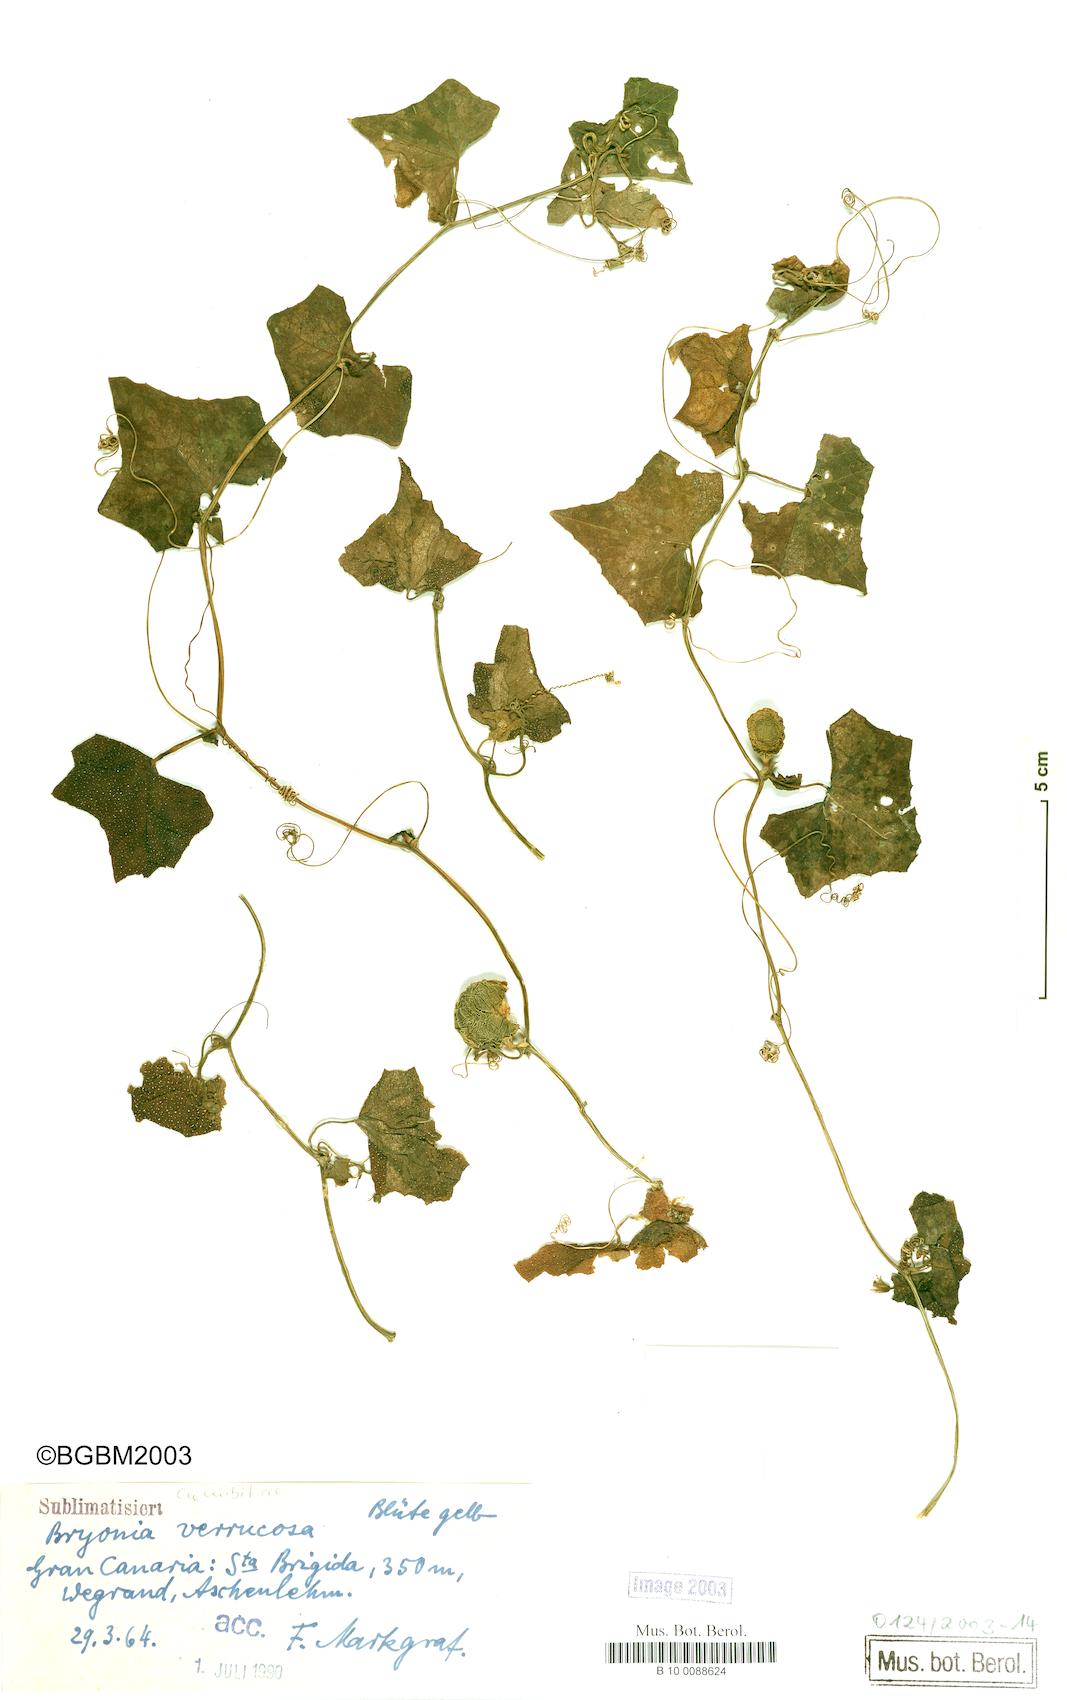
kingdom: Plantae
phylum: Tracheophyta
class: Magnoliopsida
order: Cucurbitales
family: Cucurbitaceae
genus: Bryonia
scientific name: Bryonia verrucosa
